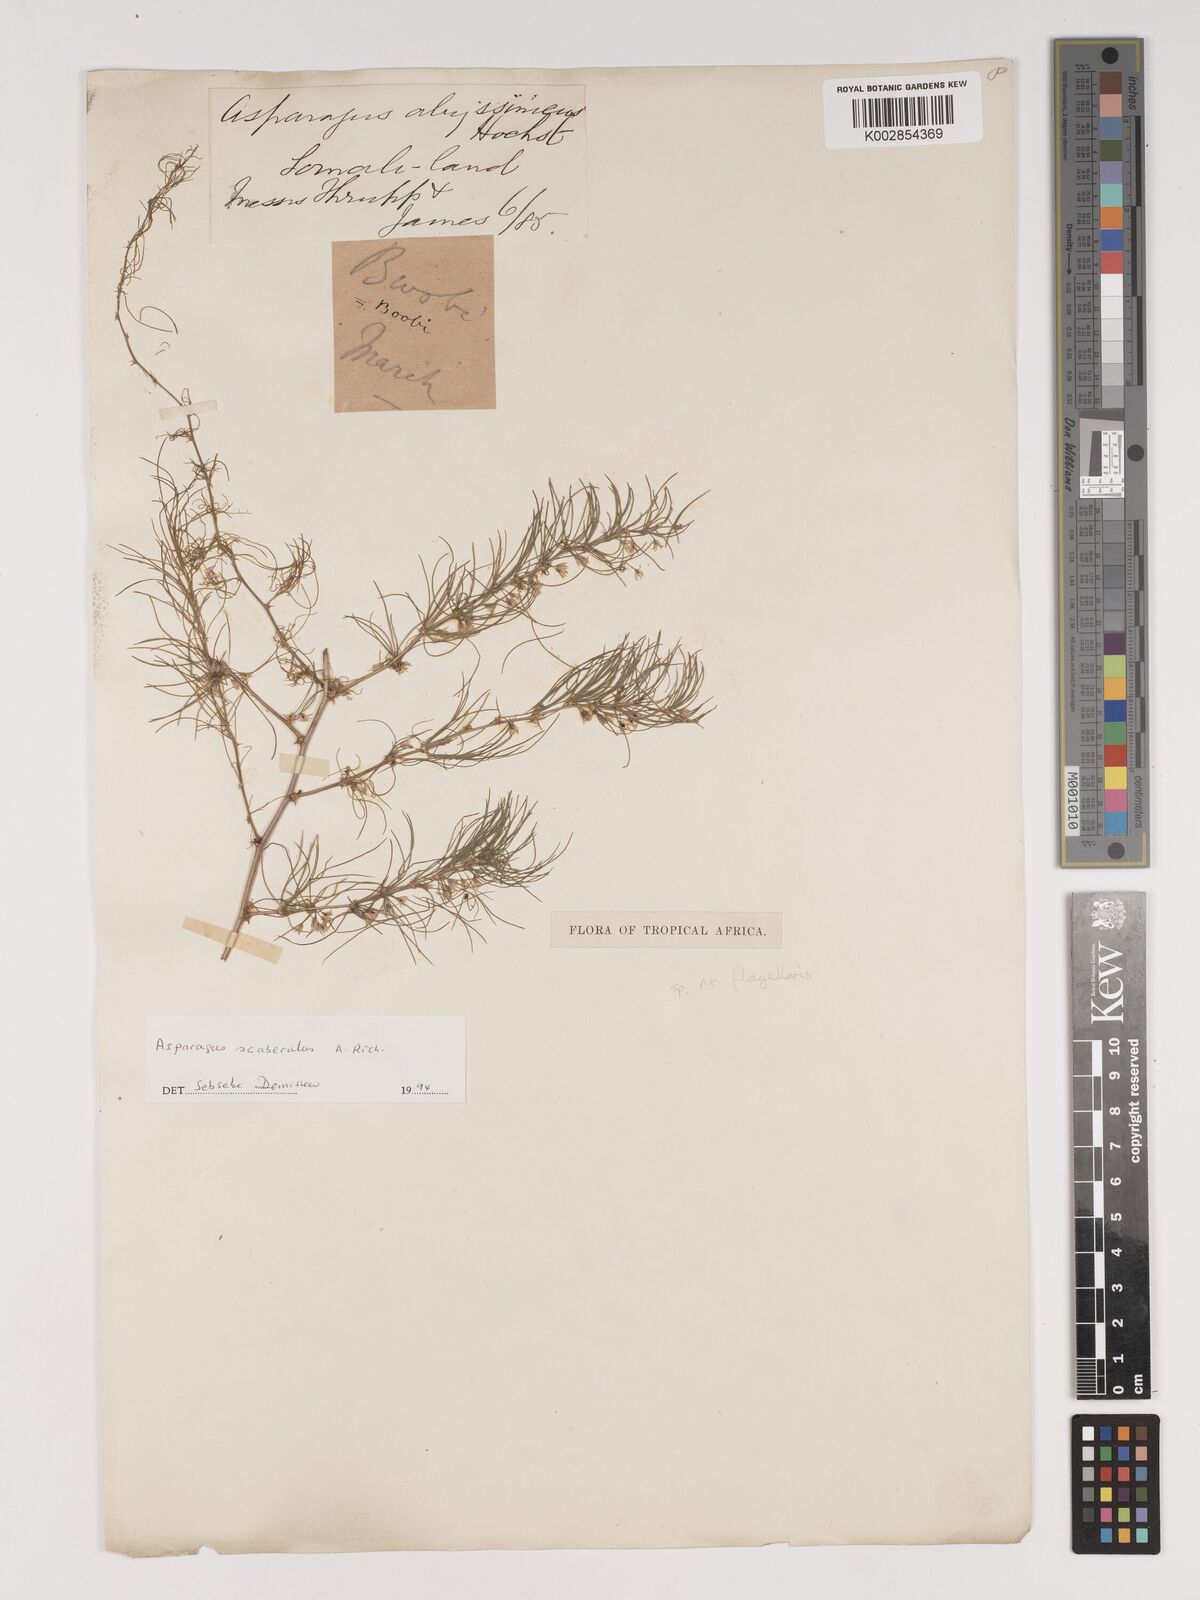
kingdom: Plantae
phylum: Tracheophyta
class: Liliopsida
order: Asparagales
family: Asparagaceae
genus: Asparagus
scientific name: Asparagus scaberulus
